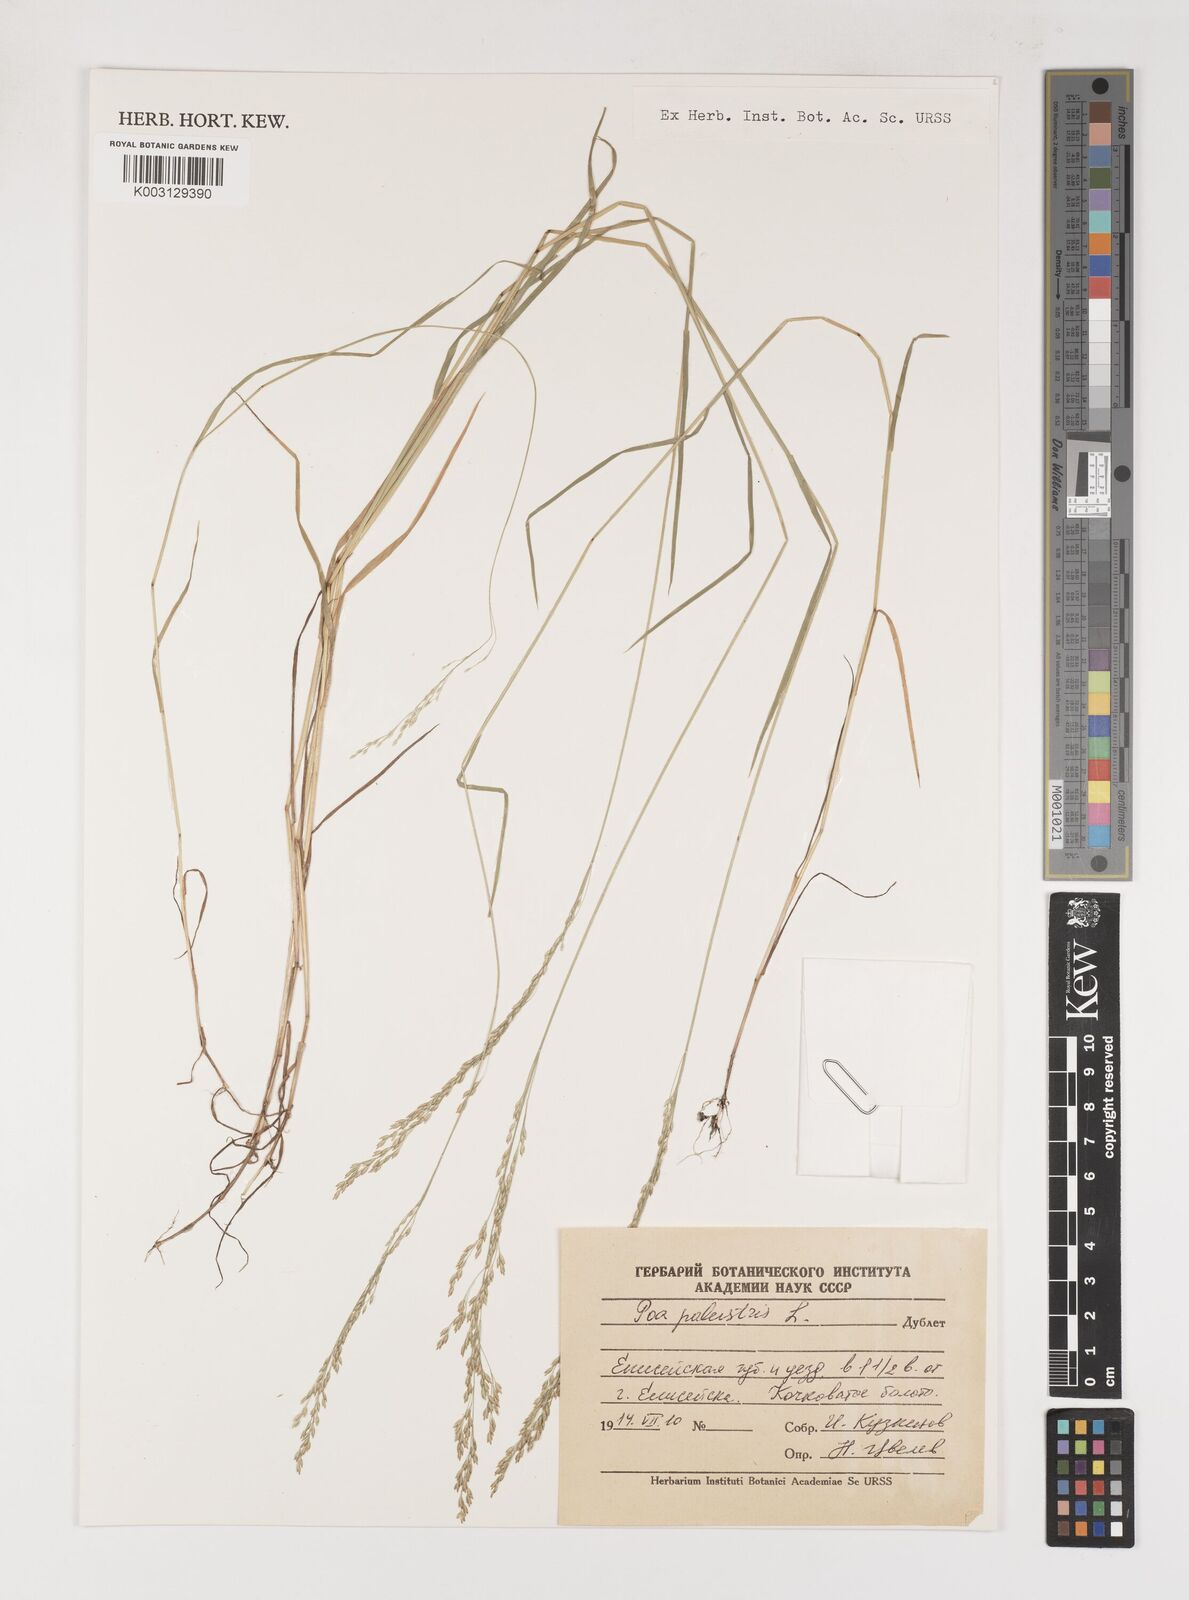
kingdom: Plantae
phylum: Tracheophyta
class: Liliopsida
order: Poales
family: Poaceae
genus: Poa
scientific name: Poa palustris
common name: Swamp meadow-grass
